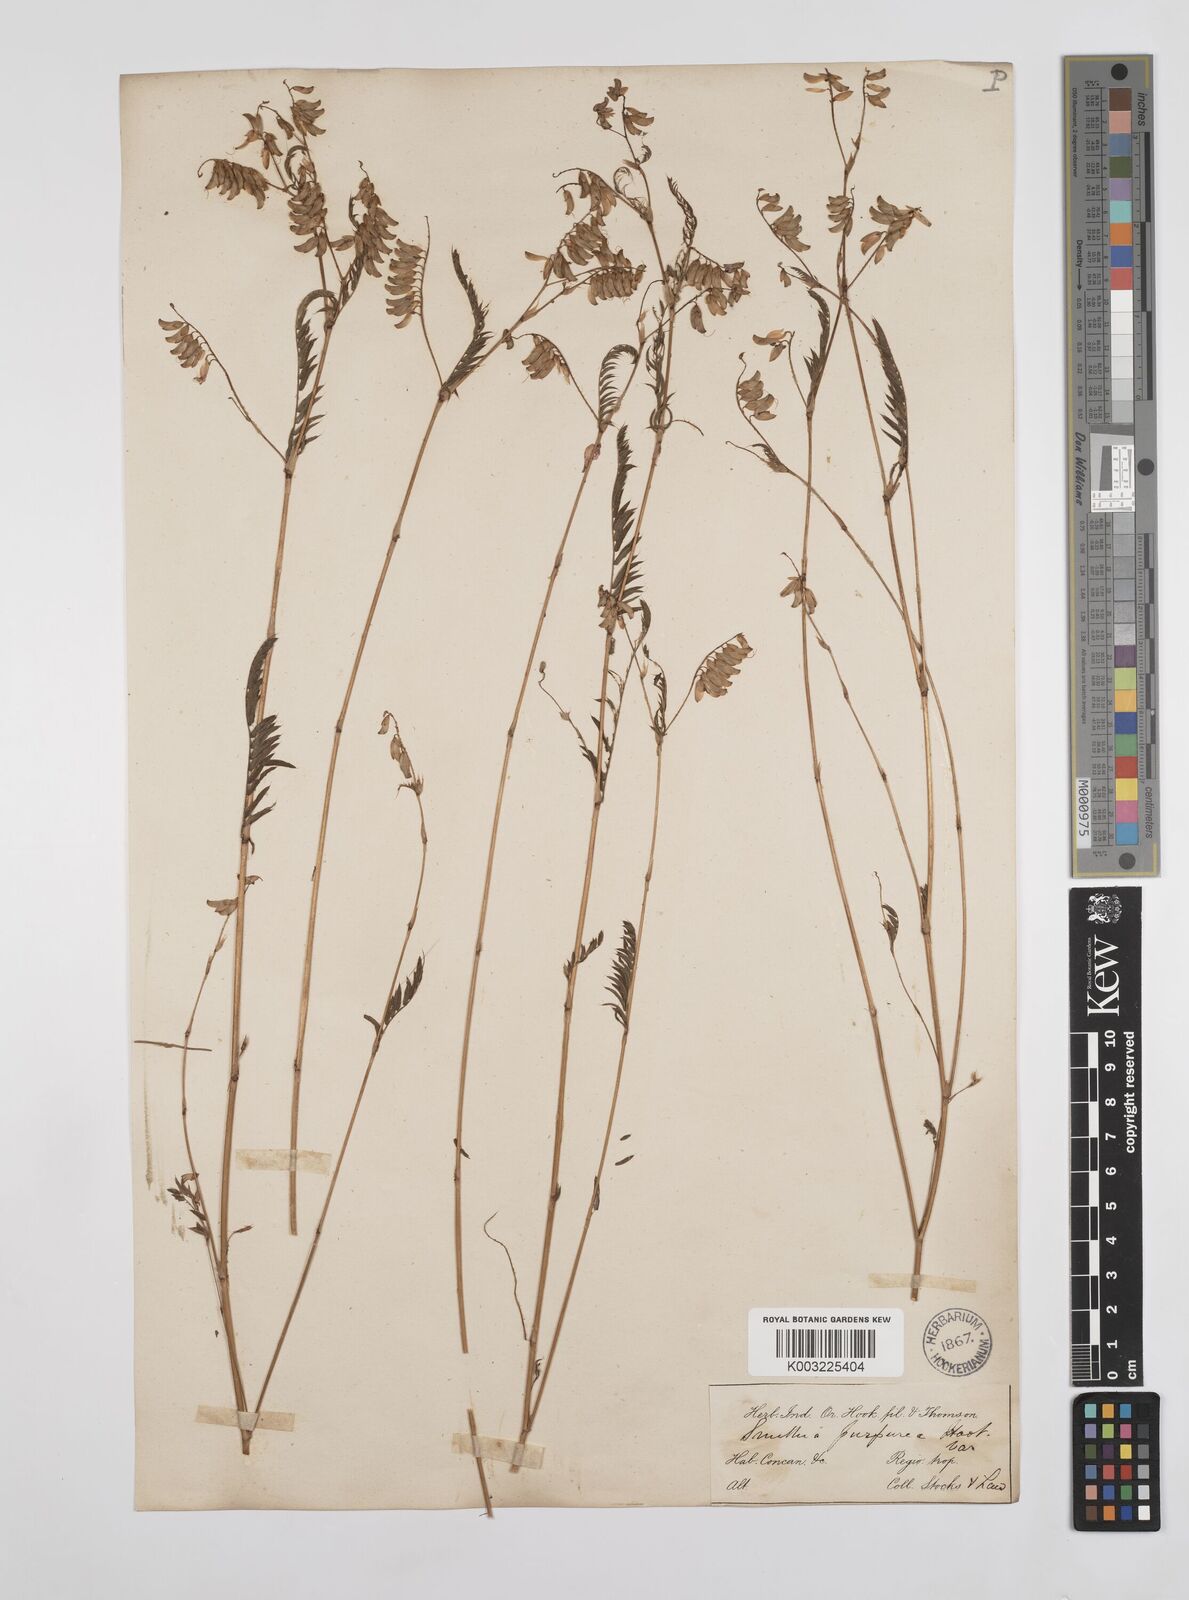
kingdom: Plantae
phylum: Tracheophyta
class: Magnoliopsida
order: Fabales
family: Fabaceae
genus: Smithia
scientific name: Smithia purpurea
